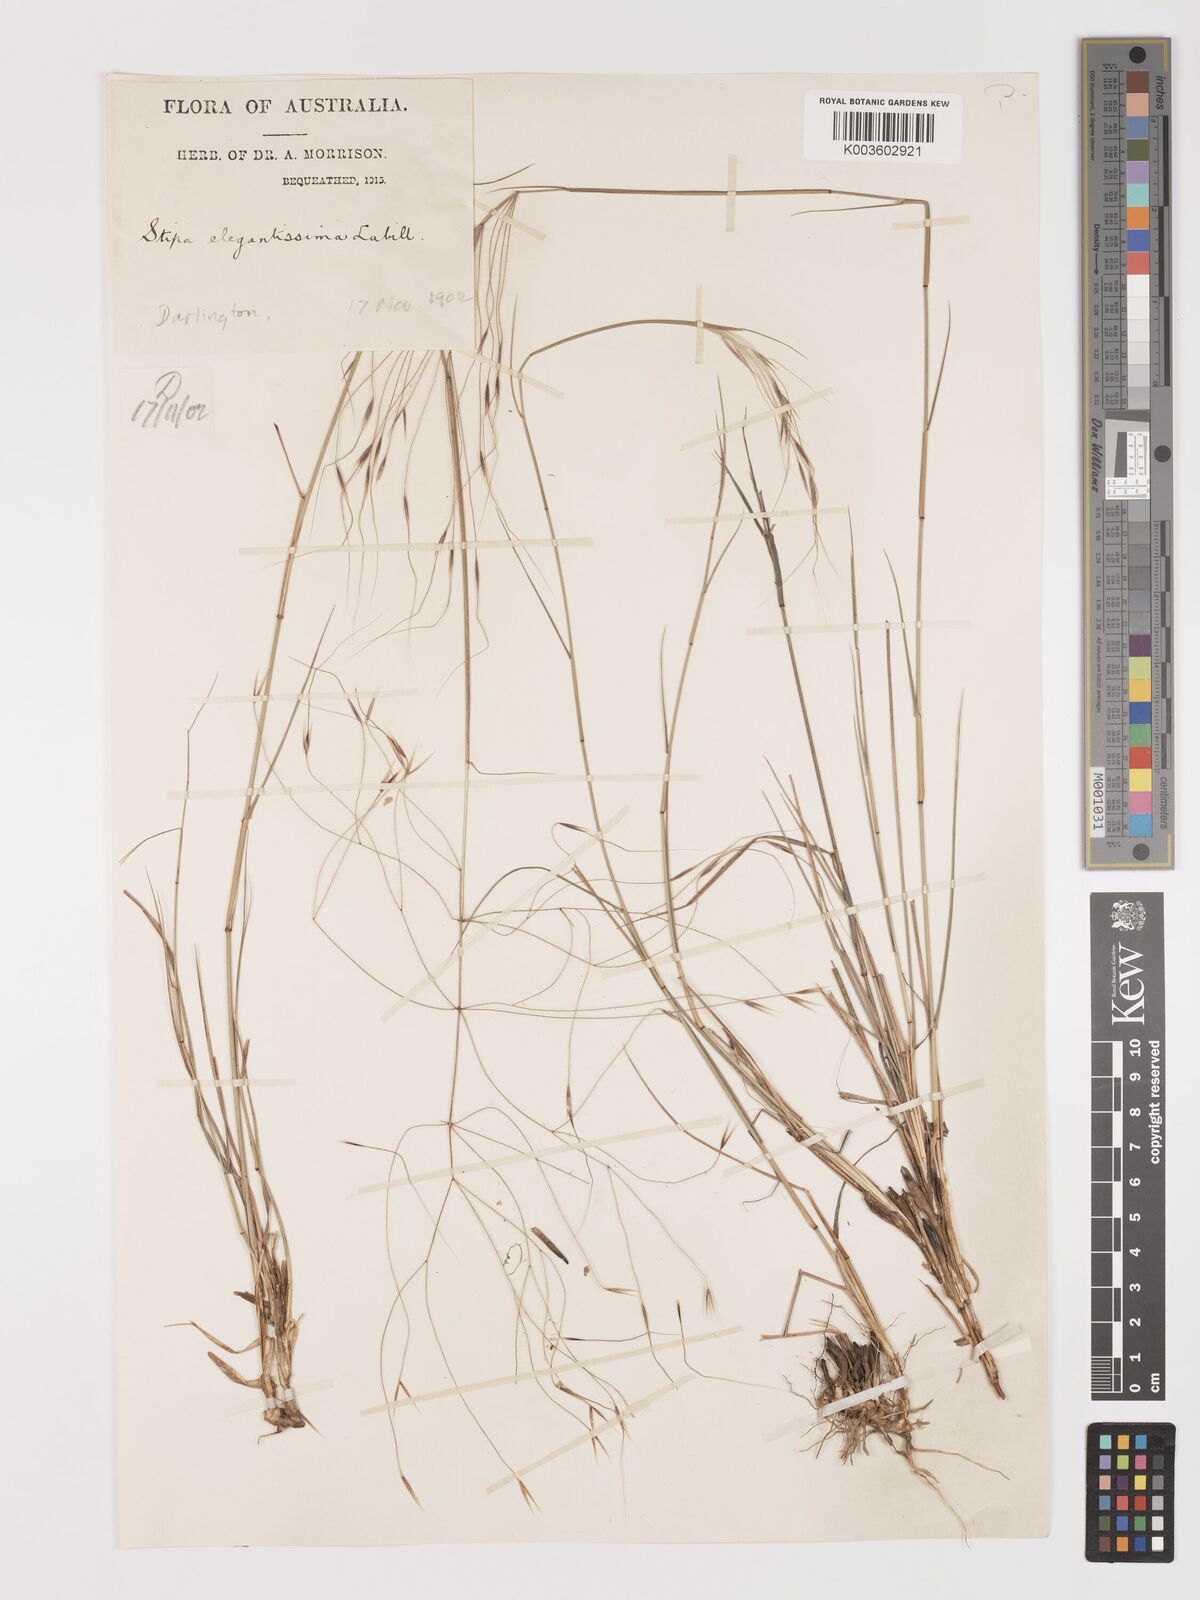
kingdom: Plantae
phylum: Tracheophyta
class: Liliopsida
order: Poales
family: Poaceae
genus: Austrostipa
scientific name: Austrostipa elegantissima
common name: Feather spear grass
